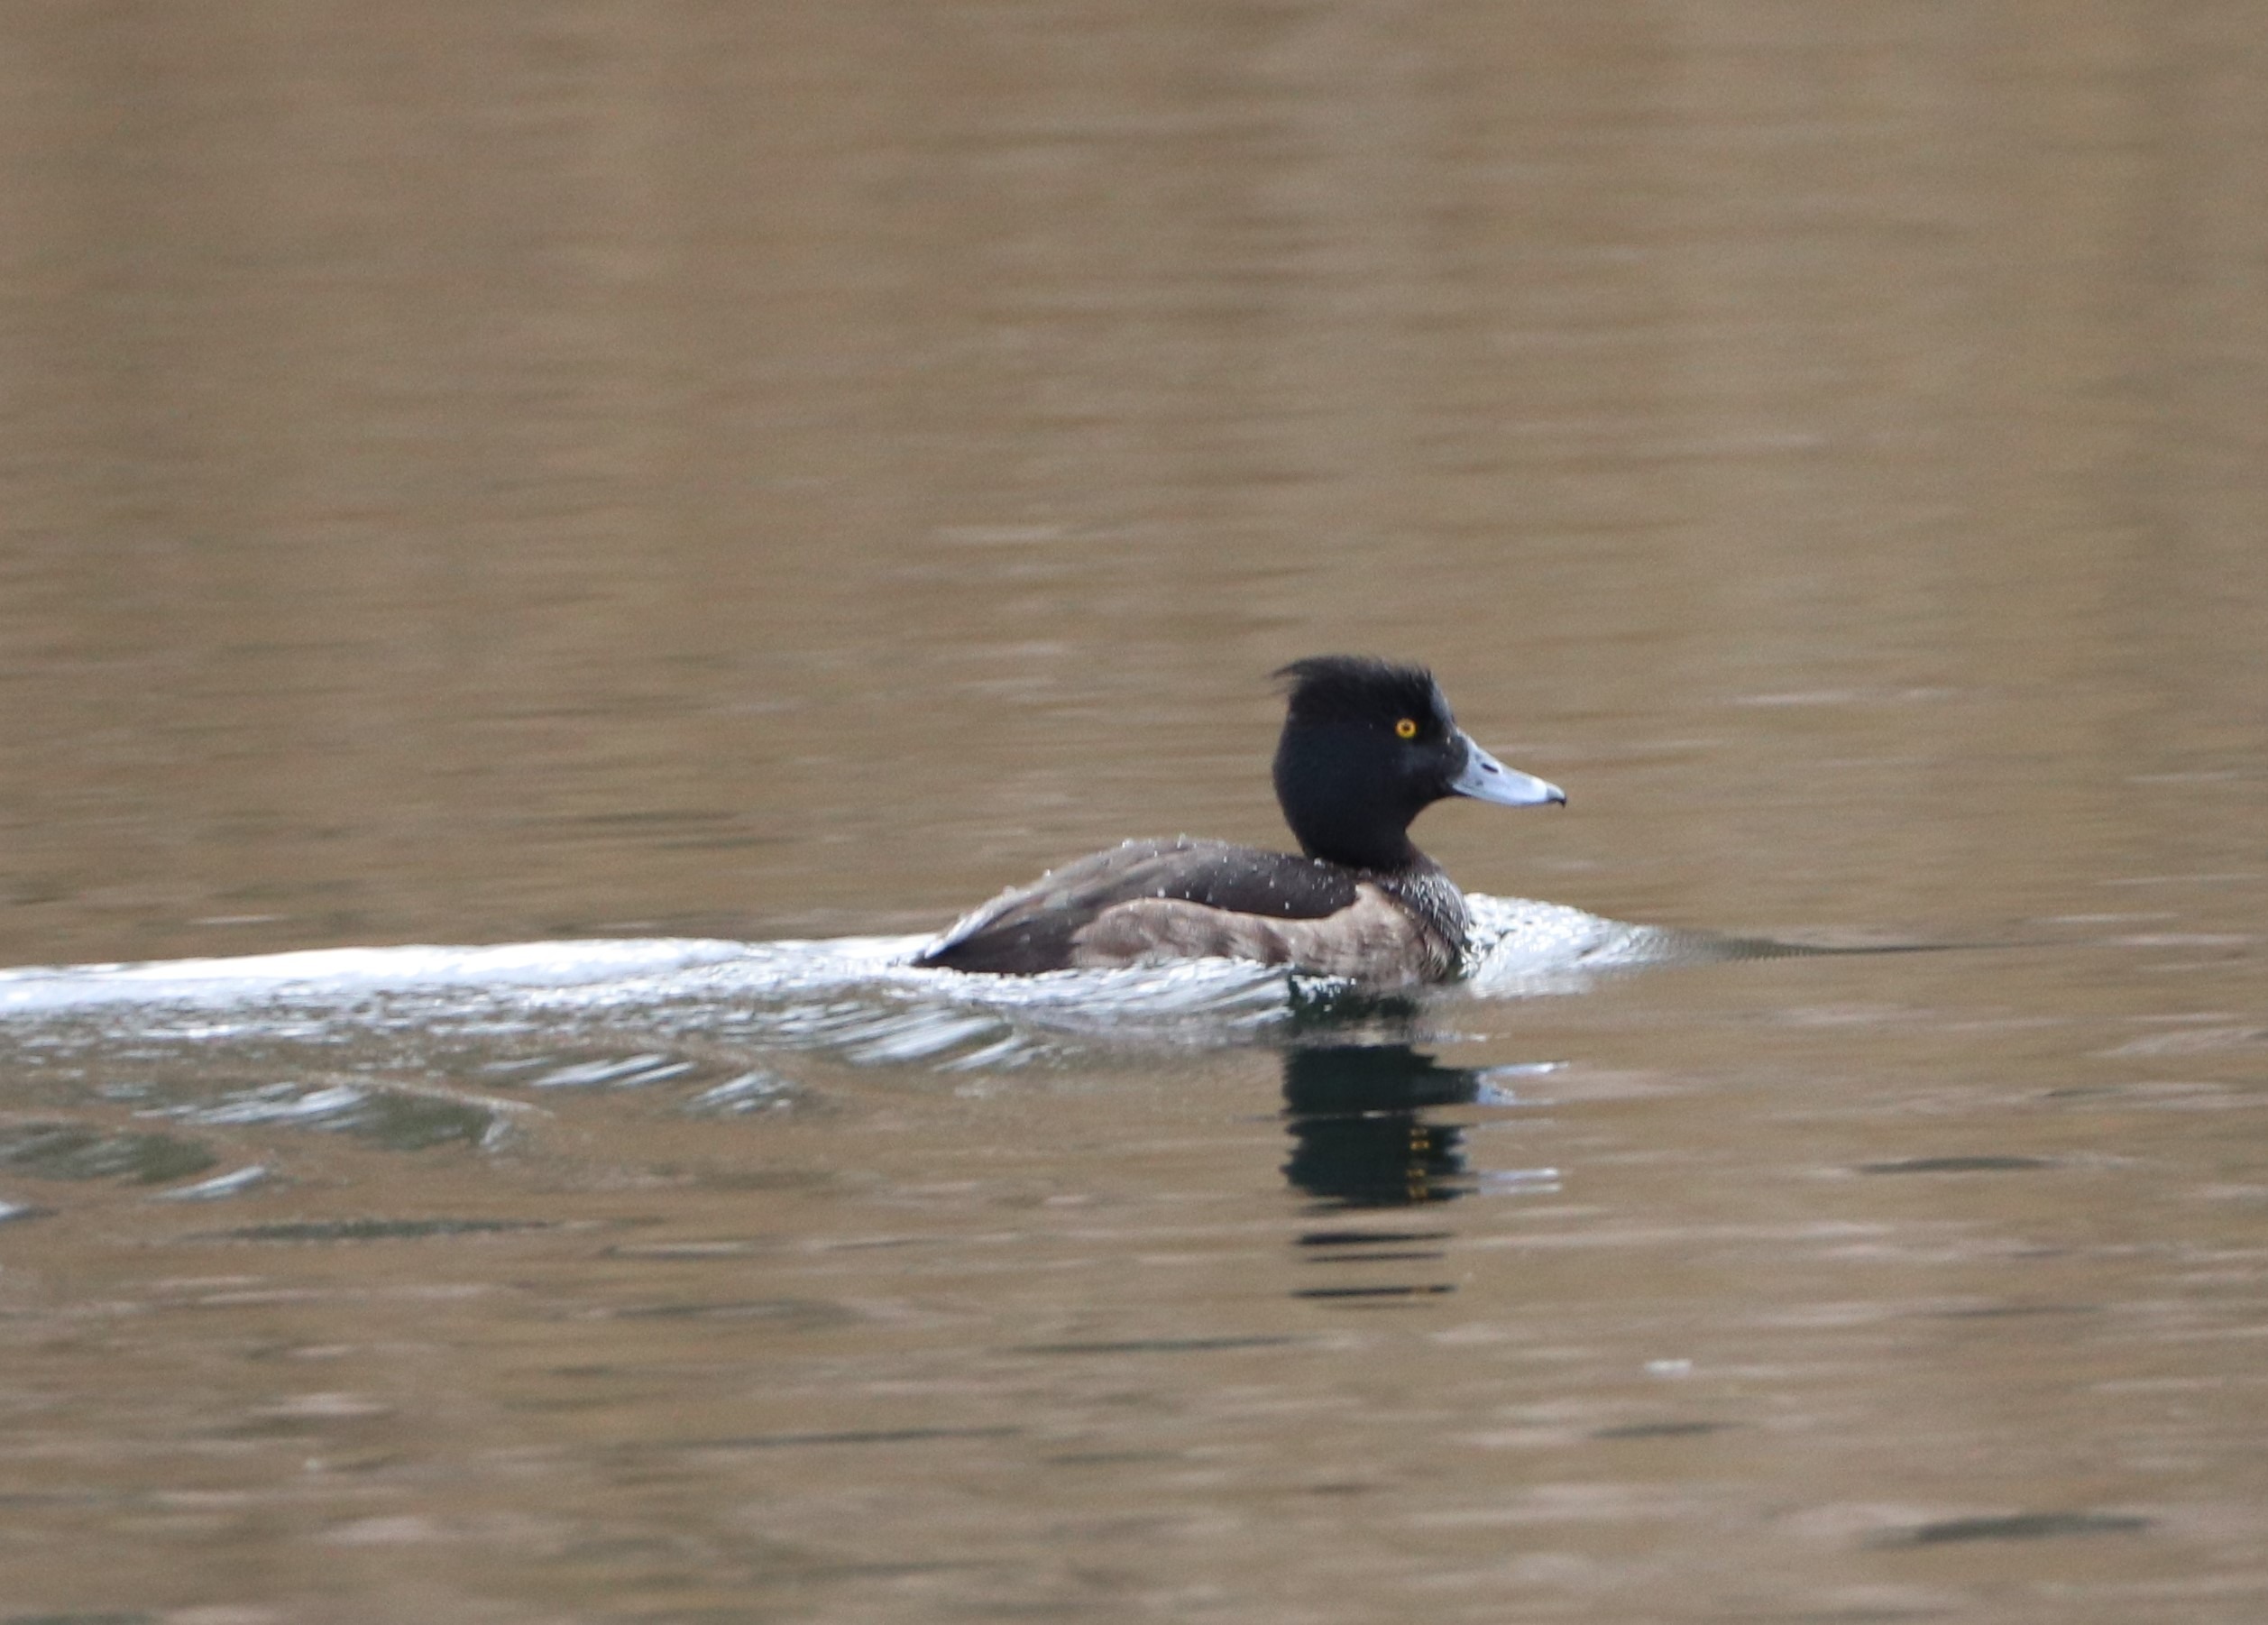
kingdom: Animalia
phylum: Chordata
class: Aves
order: Anseriformes
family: Anatidae
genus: Aythya
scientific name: Aythya fuligula
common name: Troldand
